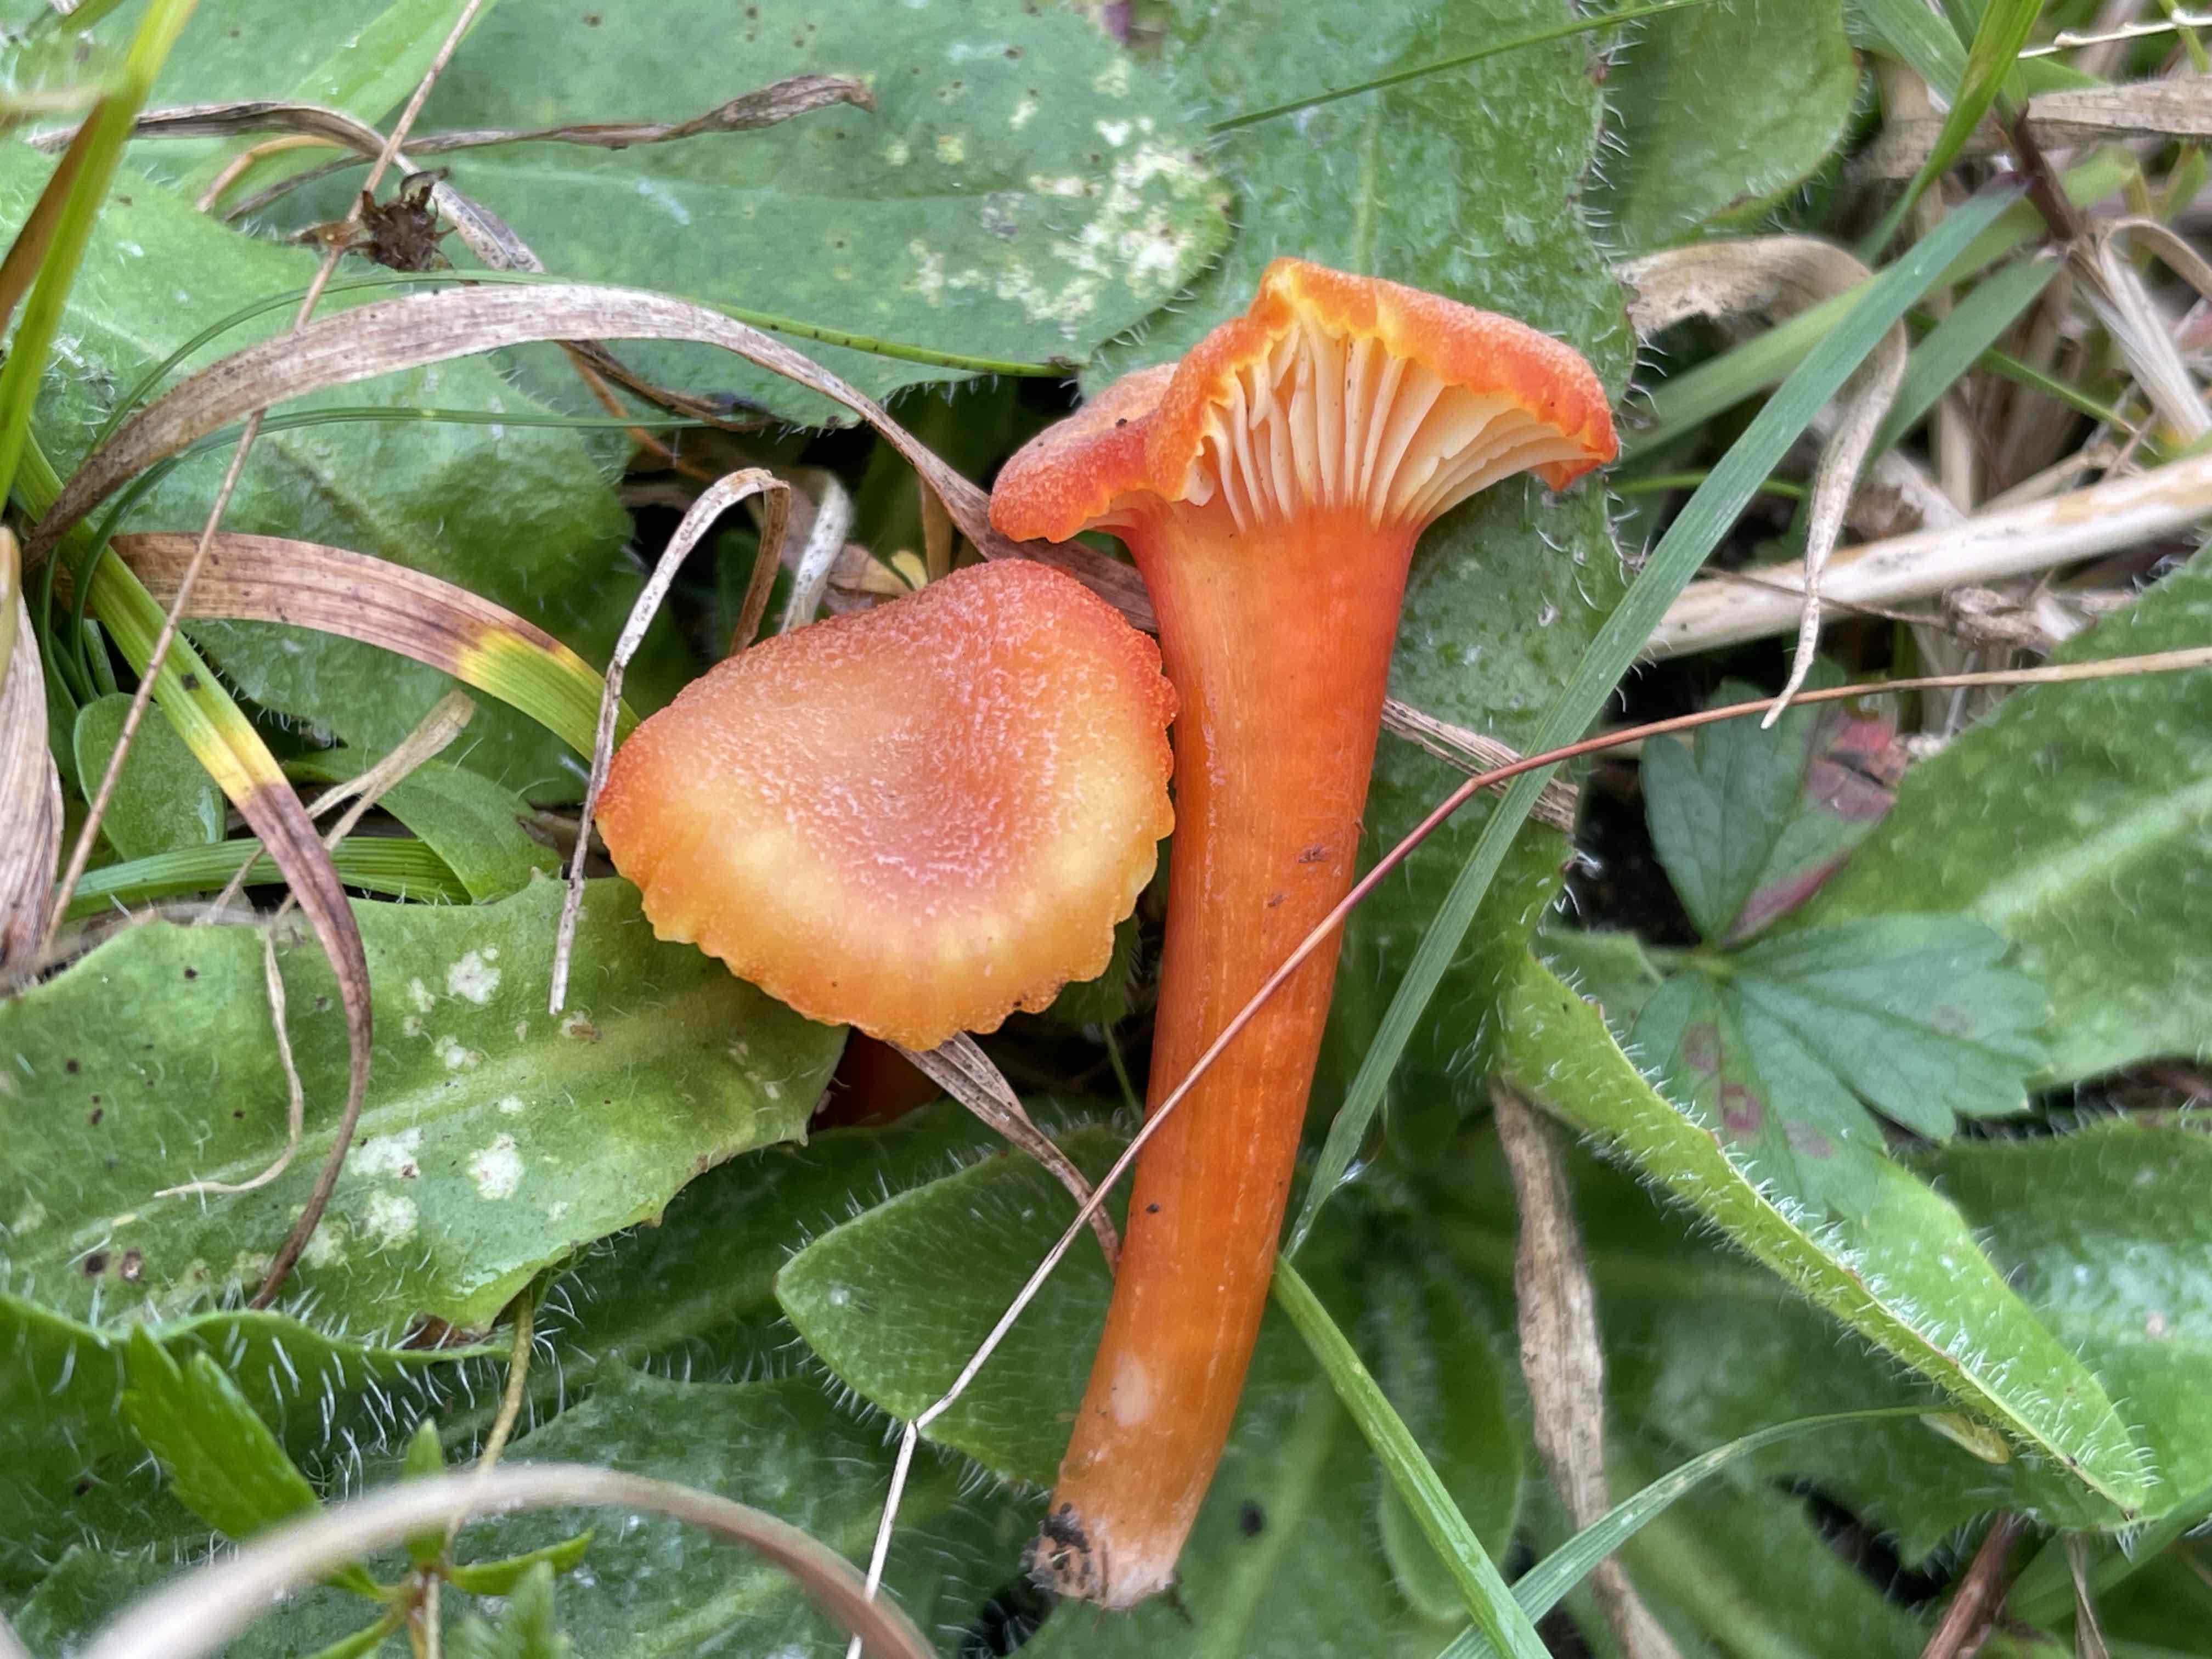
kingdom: Fungi
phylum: Basidiomycota
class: Agaricomycetes
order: Agaricales
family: Hygrophoraceae
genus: Hygrocybe
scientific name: Hygrocybe cantharellus
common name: kantarel-vokshat
